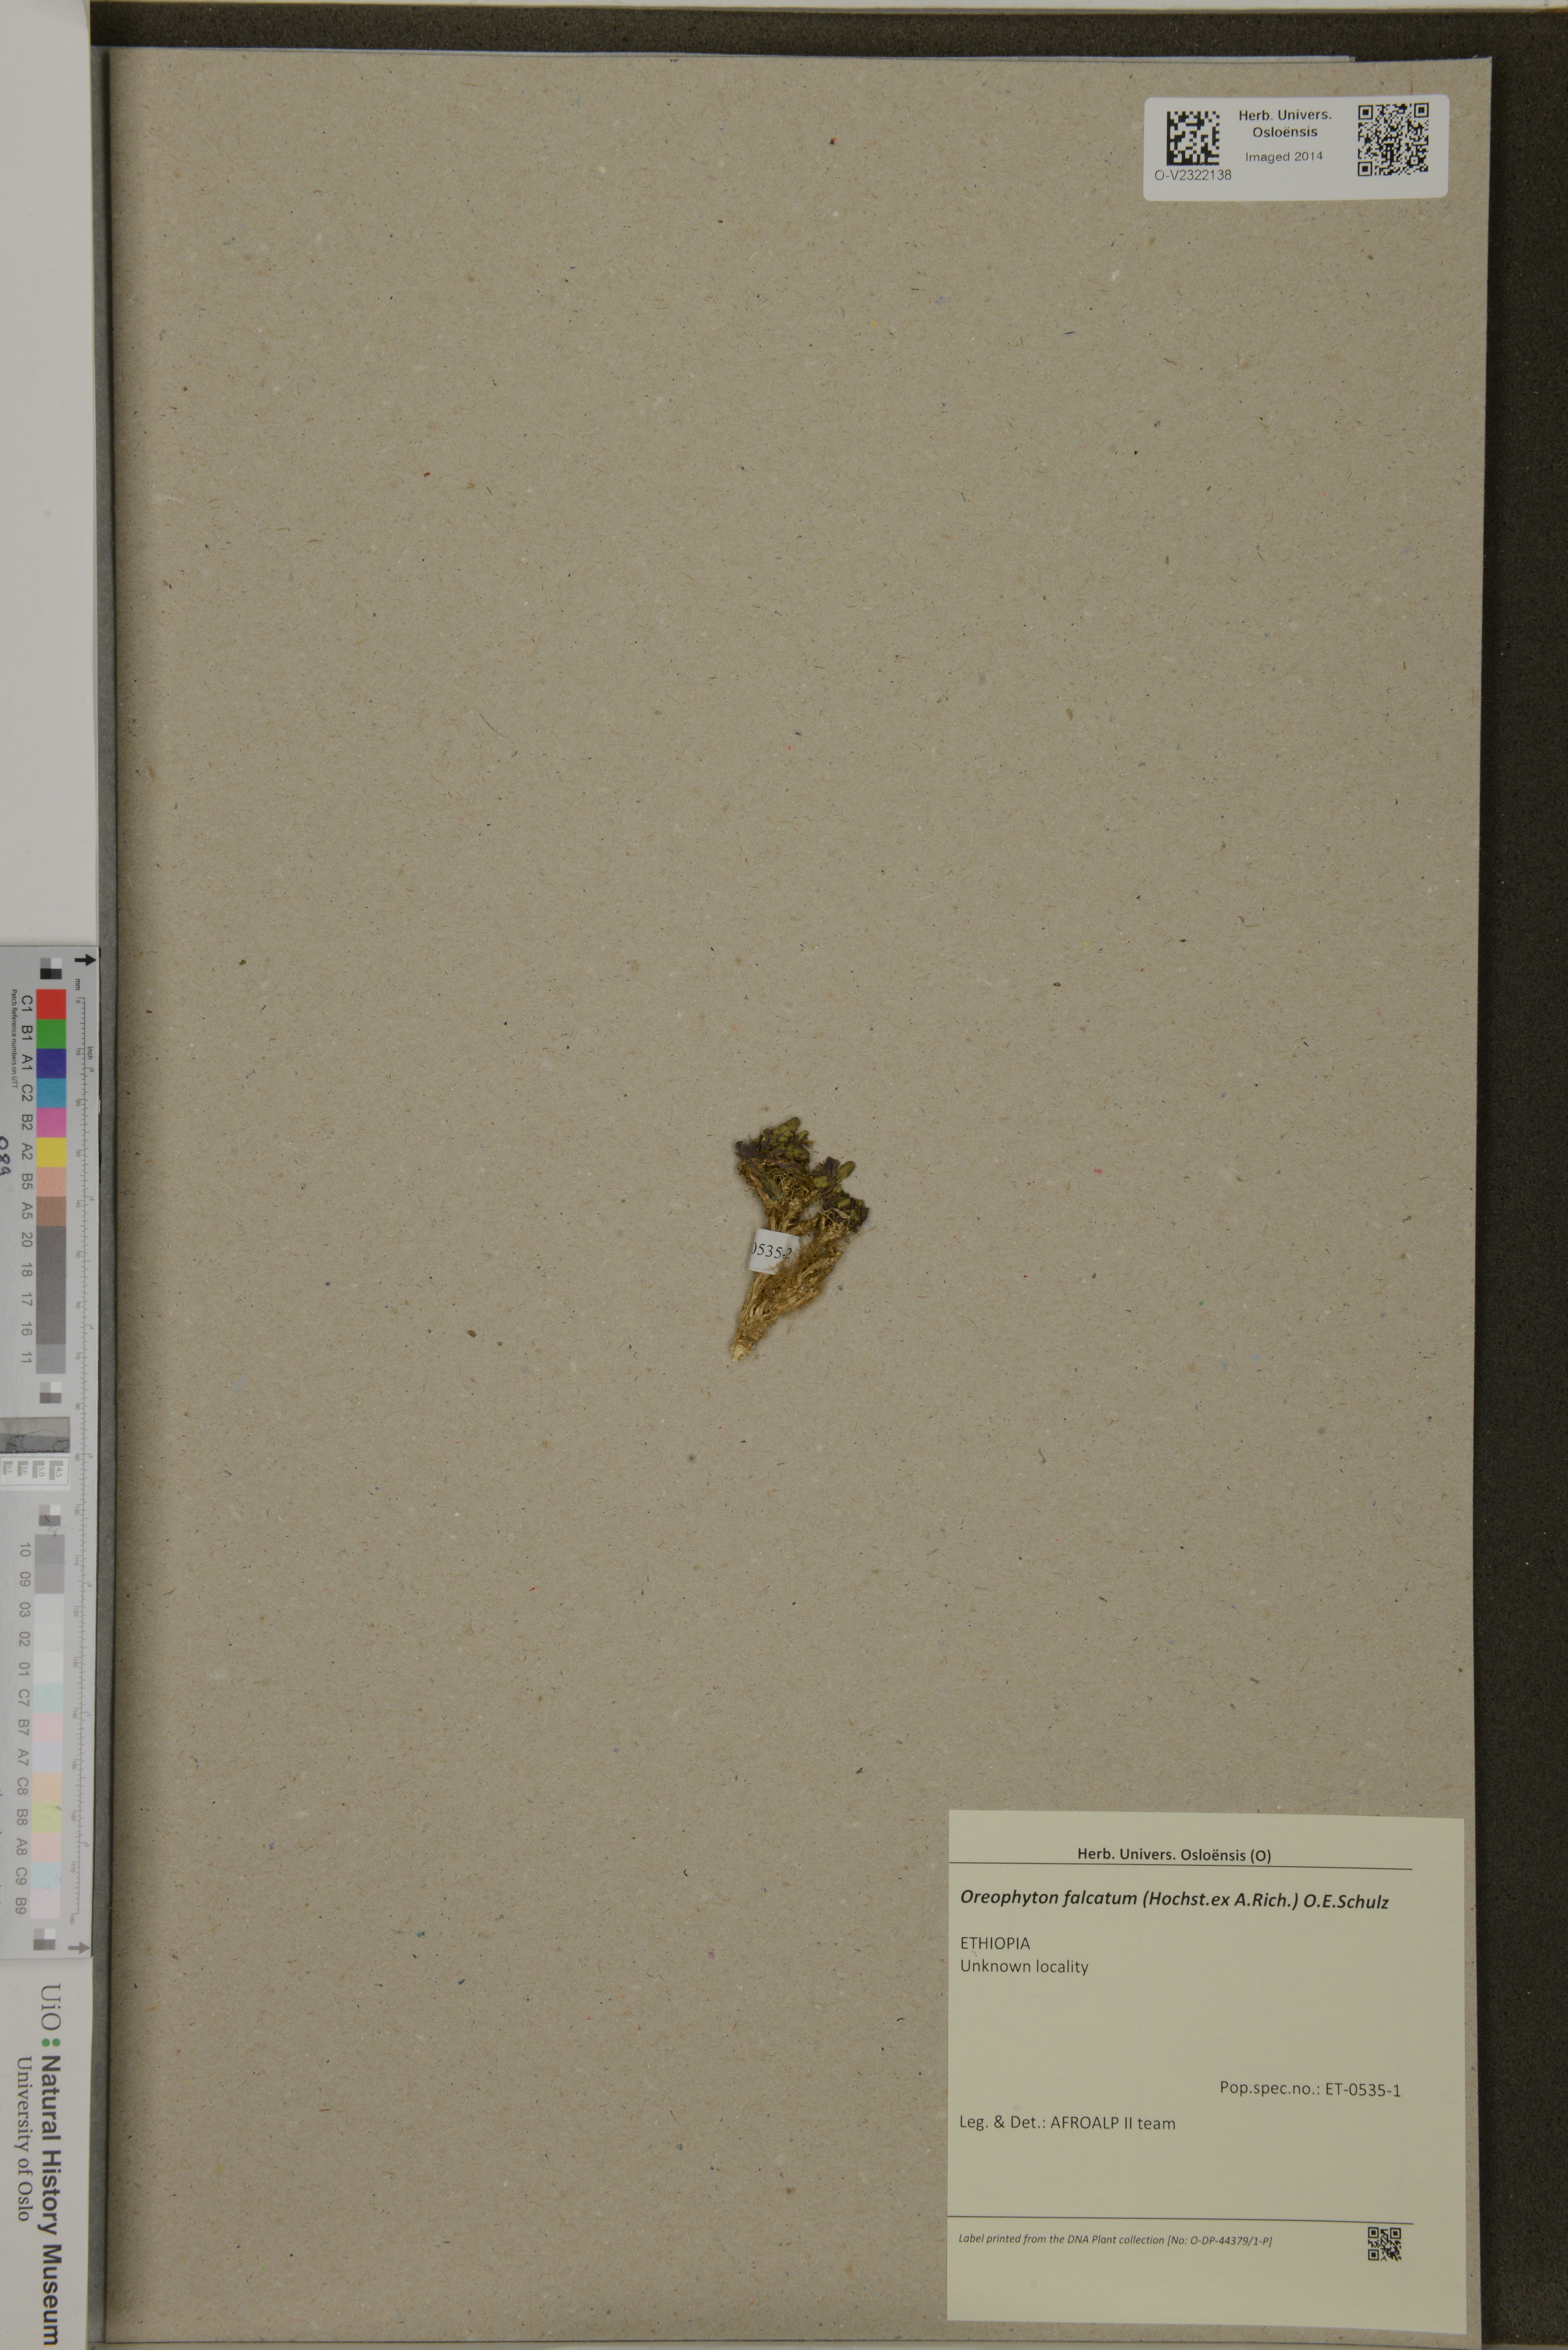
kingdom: Plantae
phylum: Tracheophyta
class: Magnoliopsida
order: Brassicales
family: Brassicaceae
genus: Oreophyton
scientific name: Oreophyton falcatum
